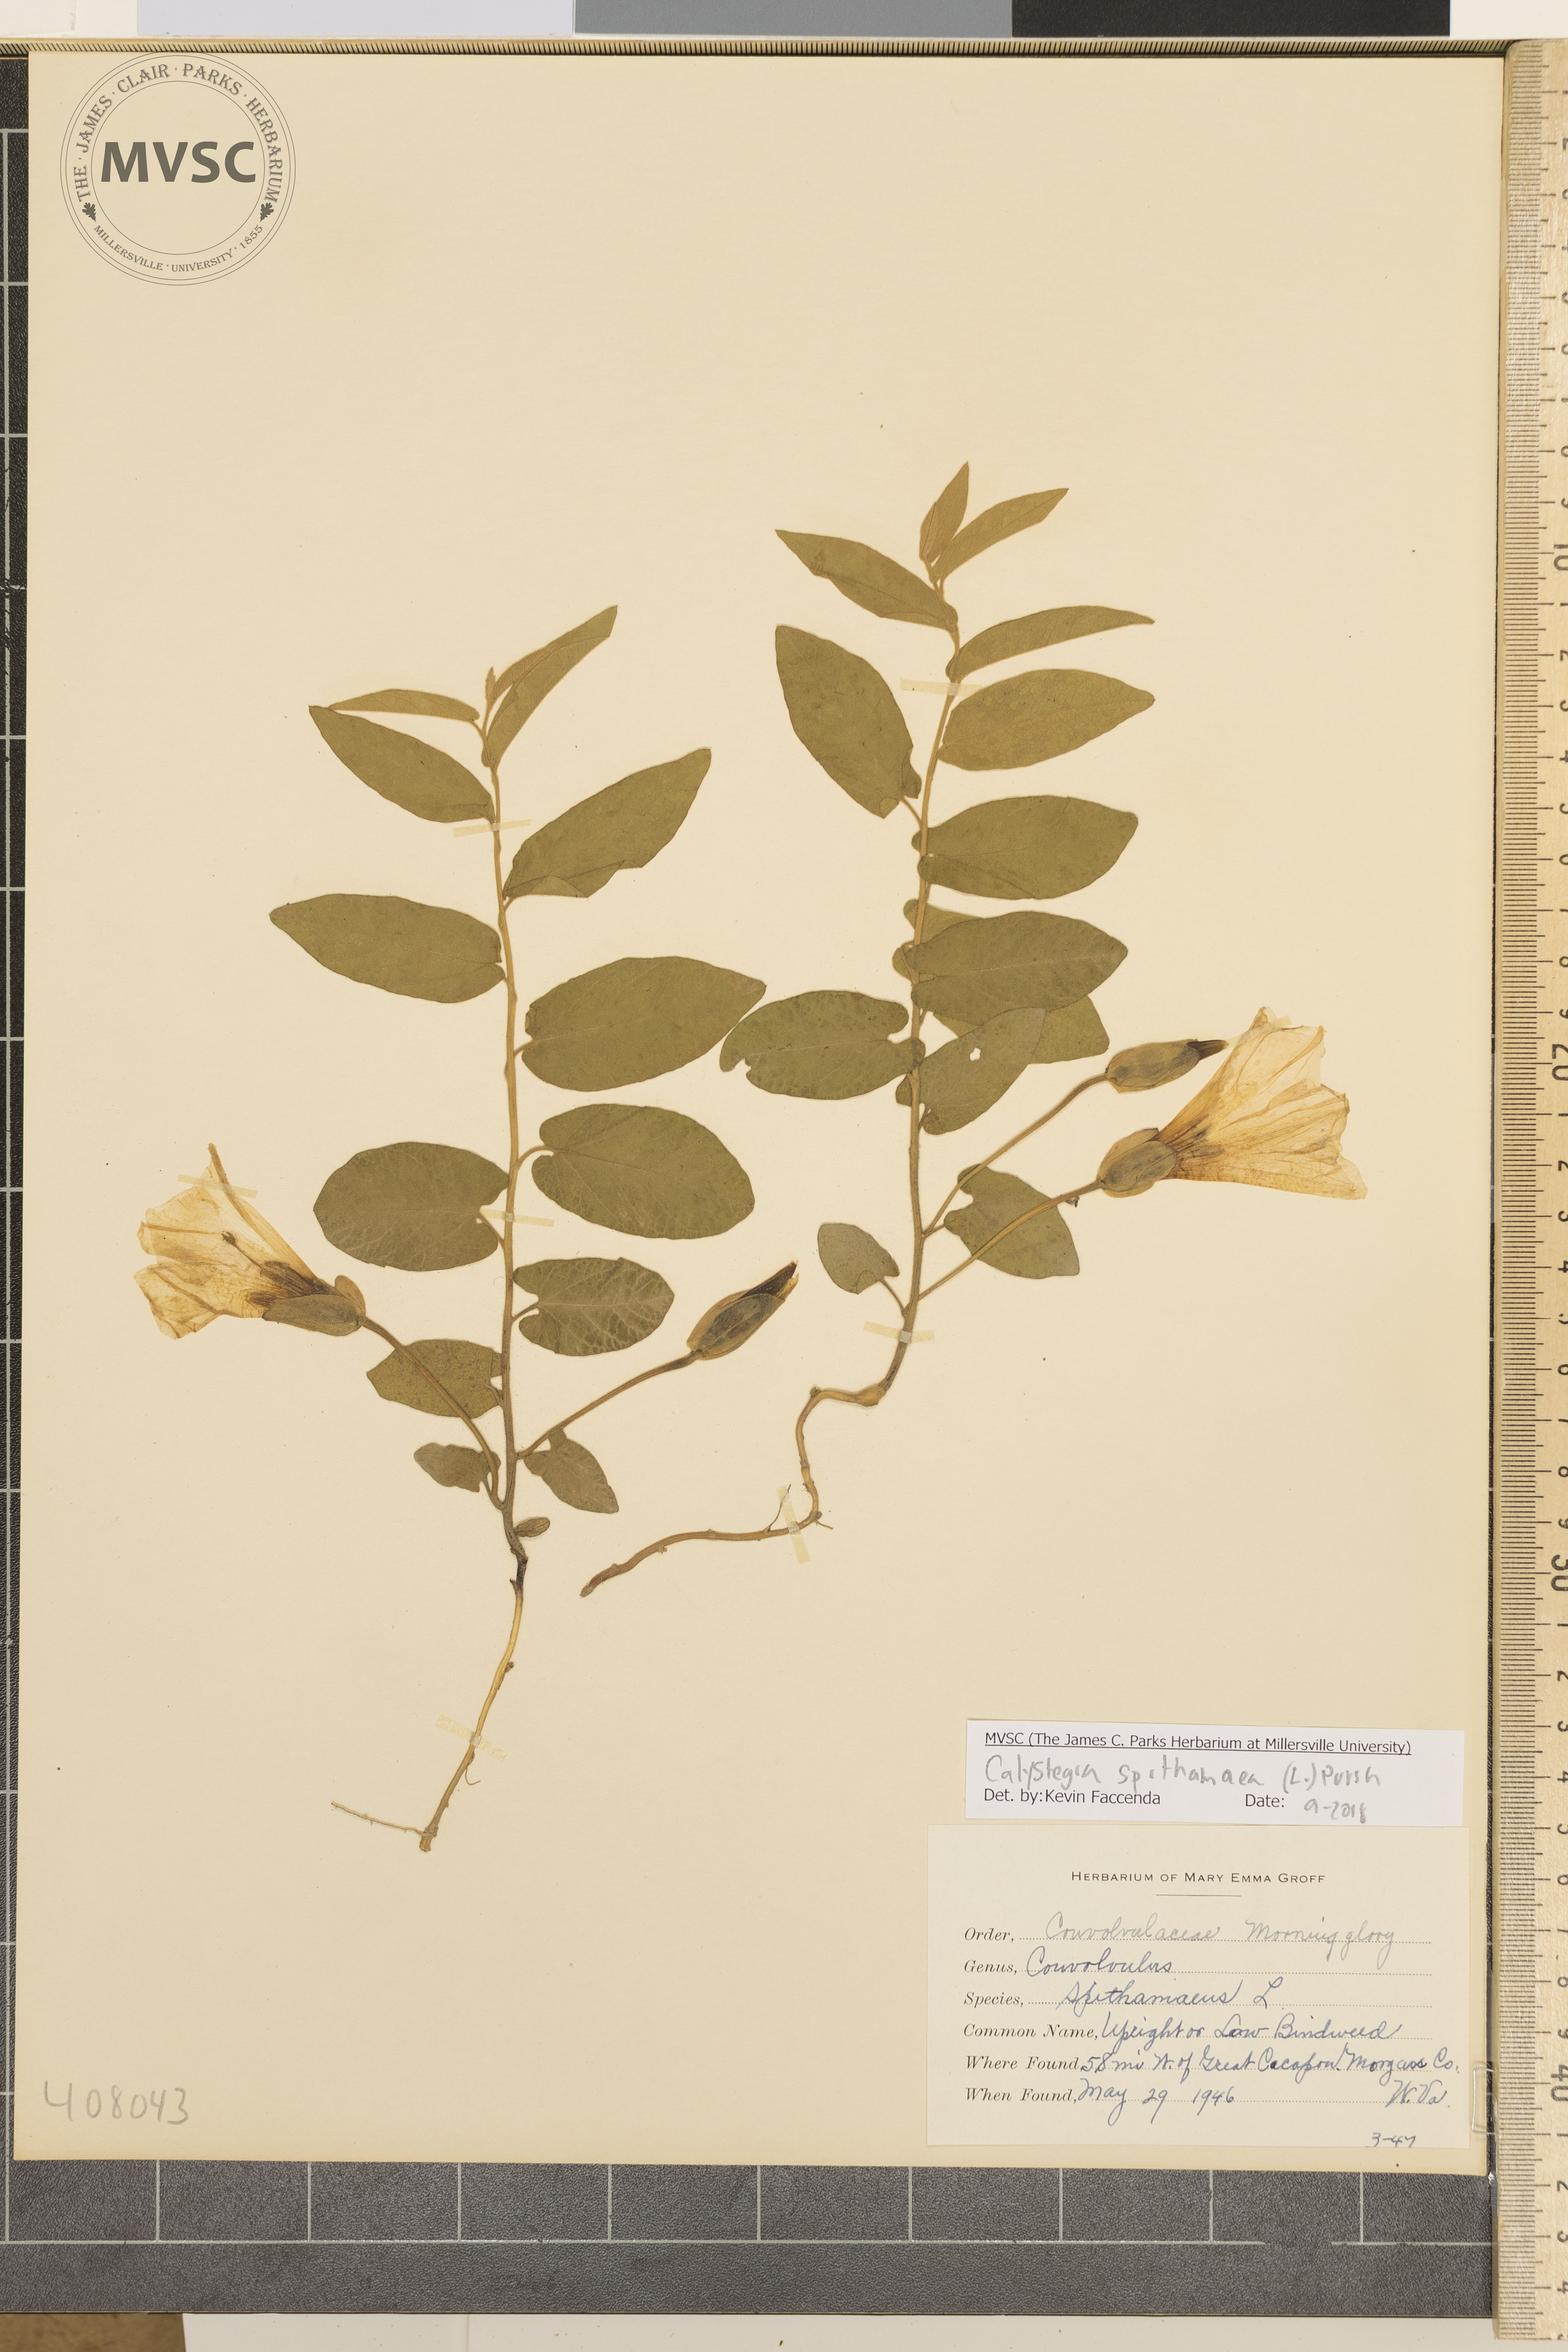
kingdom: Plantae
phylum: Tracheophyta
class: Magnoliopsida
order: Solanales
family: Convolvulaceae
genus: Calystegia
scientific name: Calystegia spithamaea
